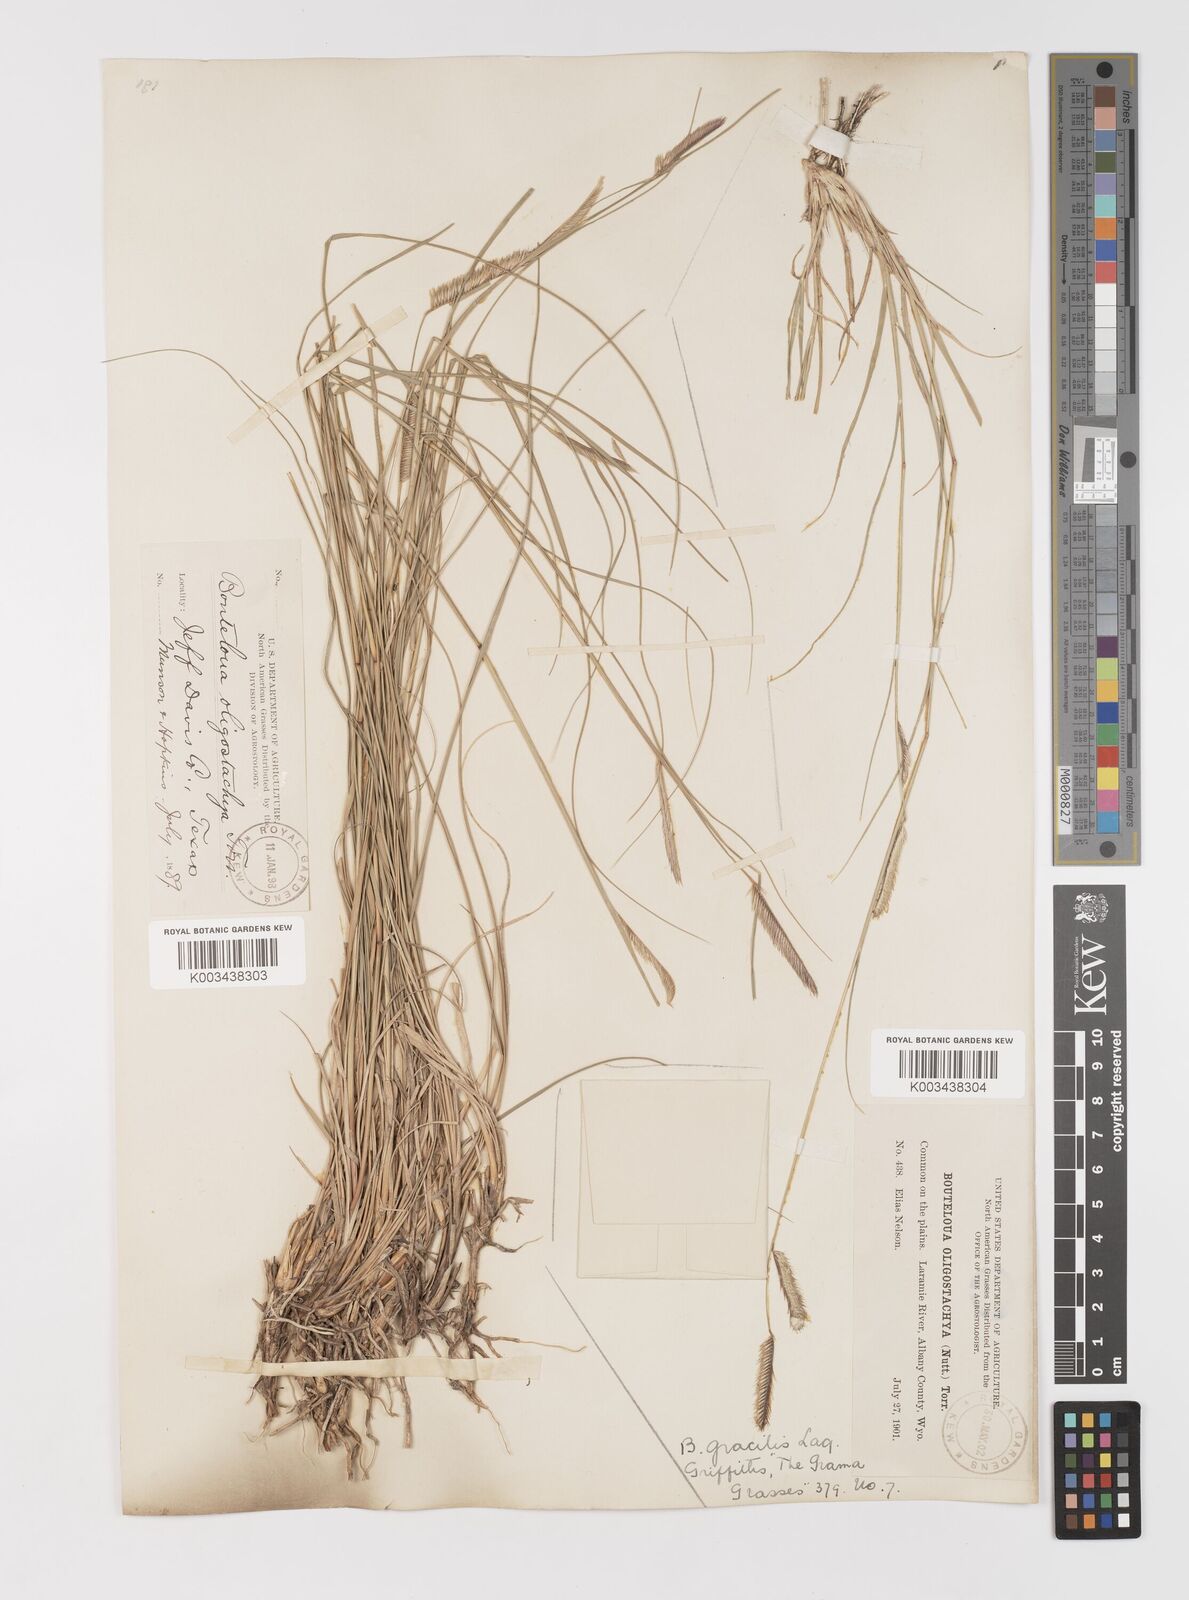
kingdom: Plantae
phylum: Tracheophyta
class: Liliopsida
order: Poales
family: Poaceae
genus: Bouteloua
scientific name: Bouteloua
